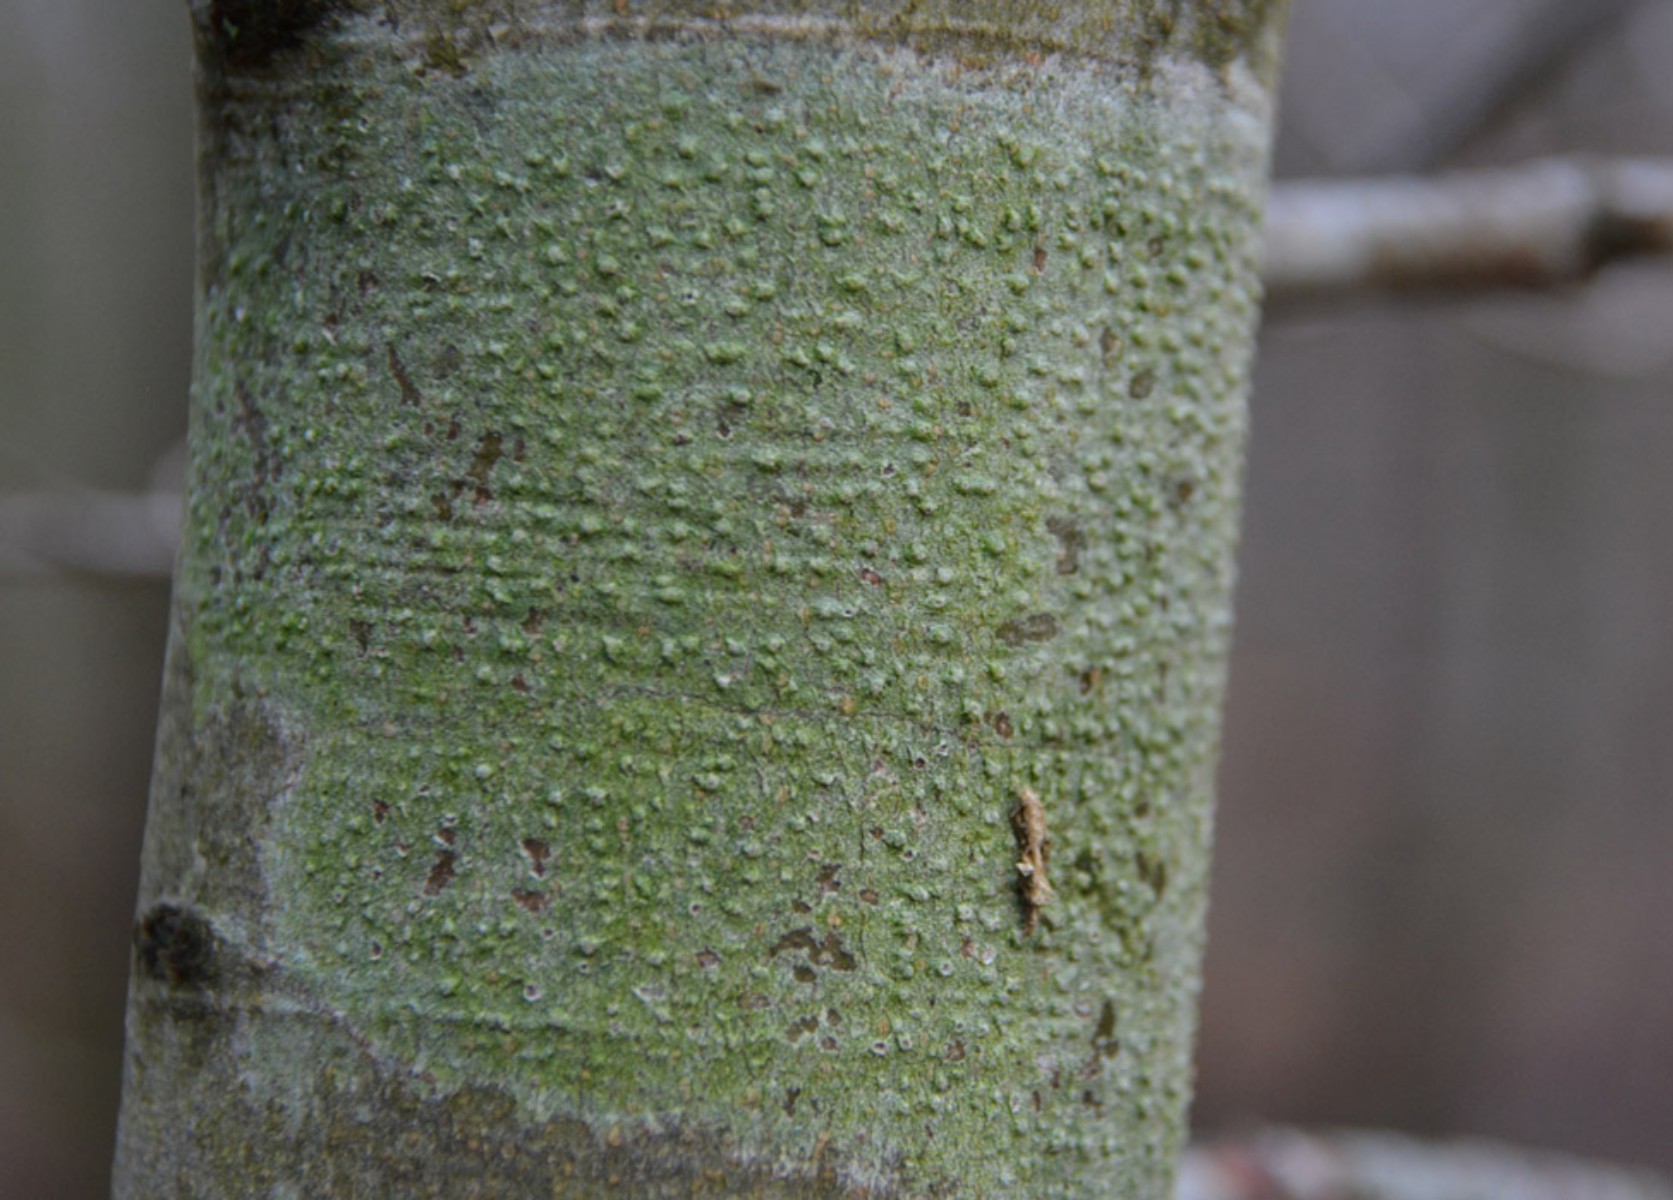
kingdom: Fungi
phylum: Ascomycota
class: Lecanoromycetes
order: Pertusariales
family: Pertusariaceae
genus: Pertusaria
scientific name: Pertusaria leioplaca
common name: tynd prikvortelav
